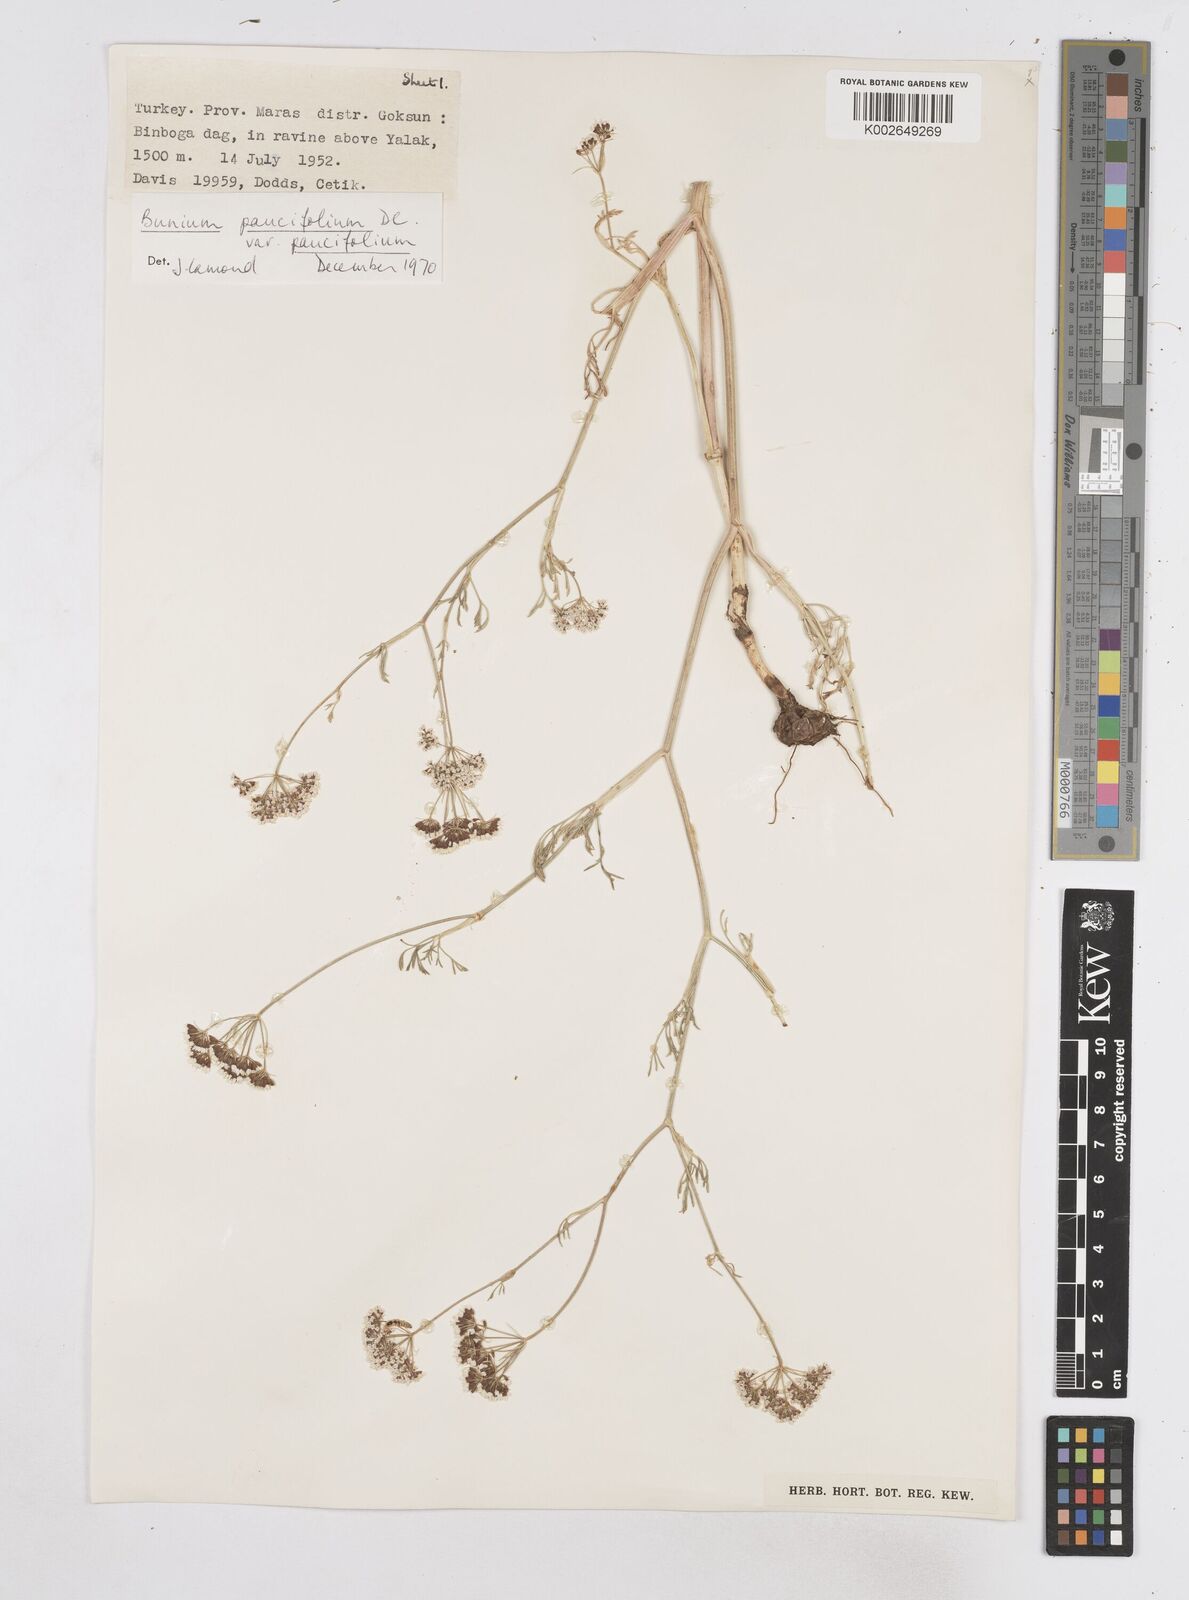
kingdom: Plantae
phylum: Tracheophyta
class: Magnoliopsida
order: Apiales
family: Apiaceae
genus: Bunium
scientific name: Bunium
